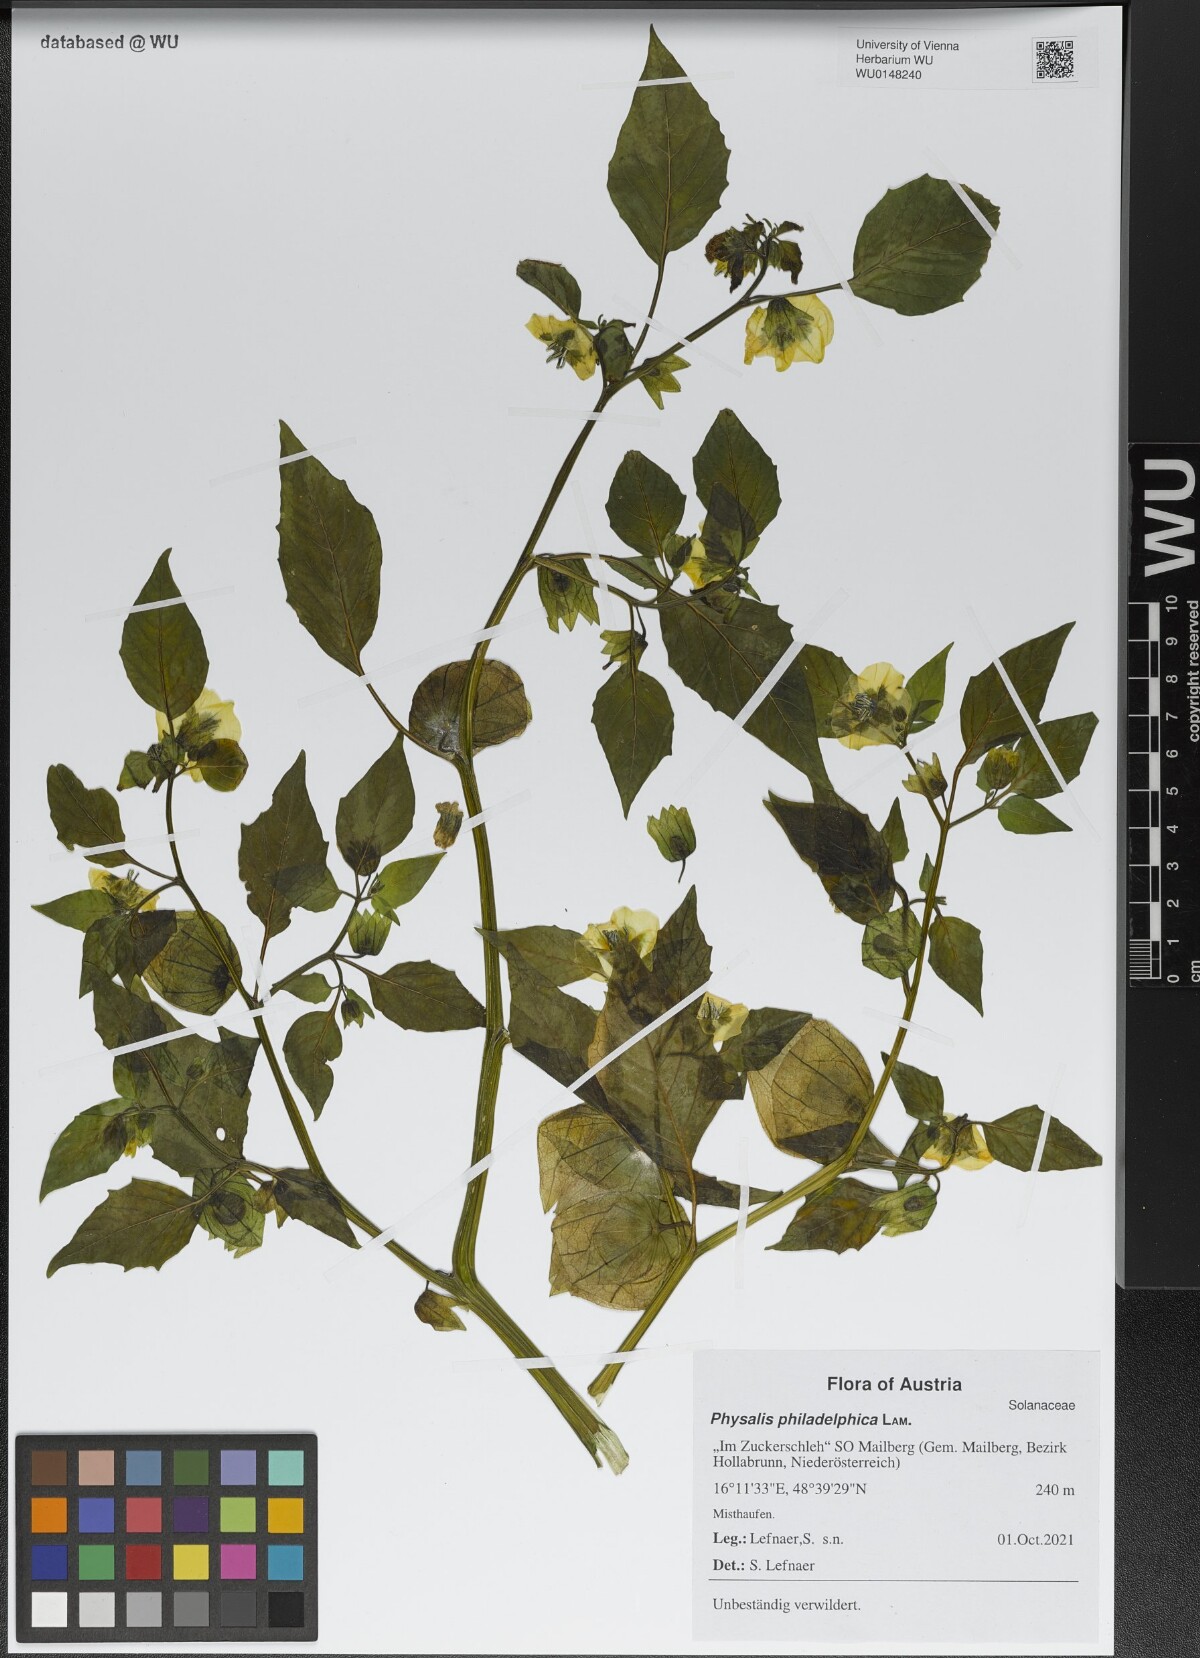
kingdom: Plantae
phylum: Tracheophyta
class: Magnoliopsida
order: Solanales
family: Solanaceae
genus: Physalis
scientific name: Physalis philadelphica
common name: Husk-tomato
